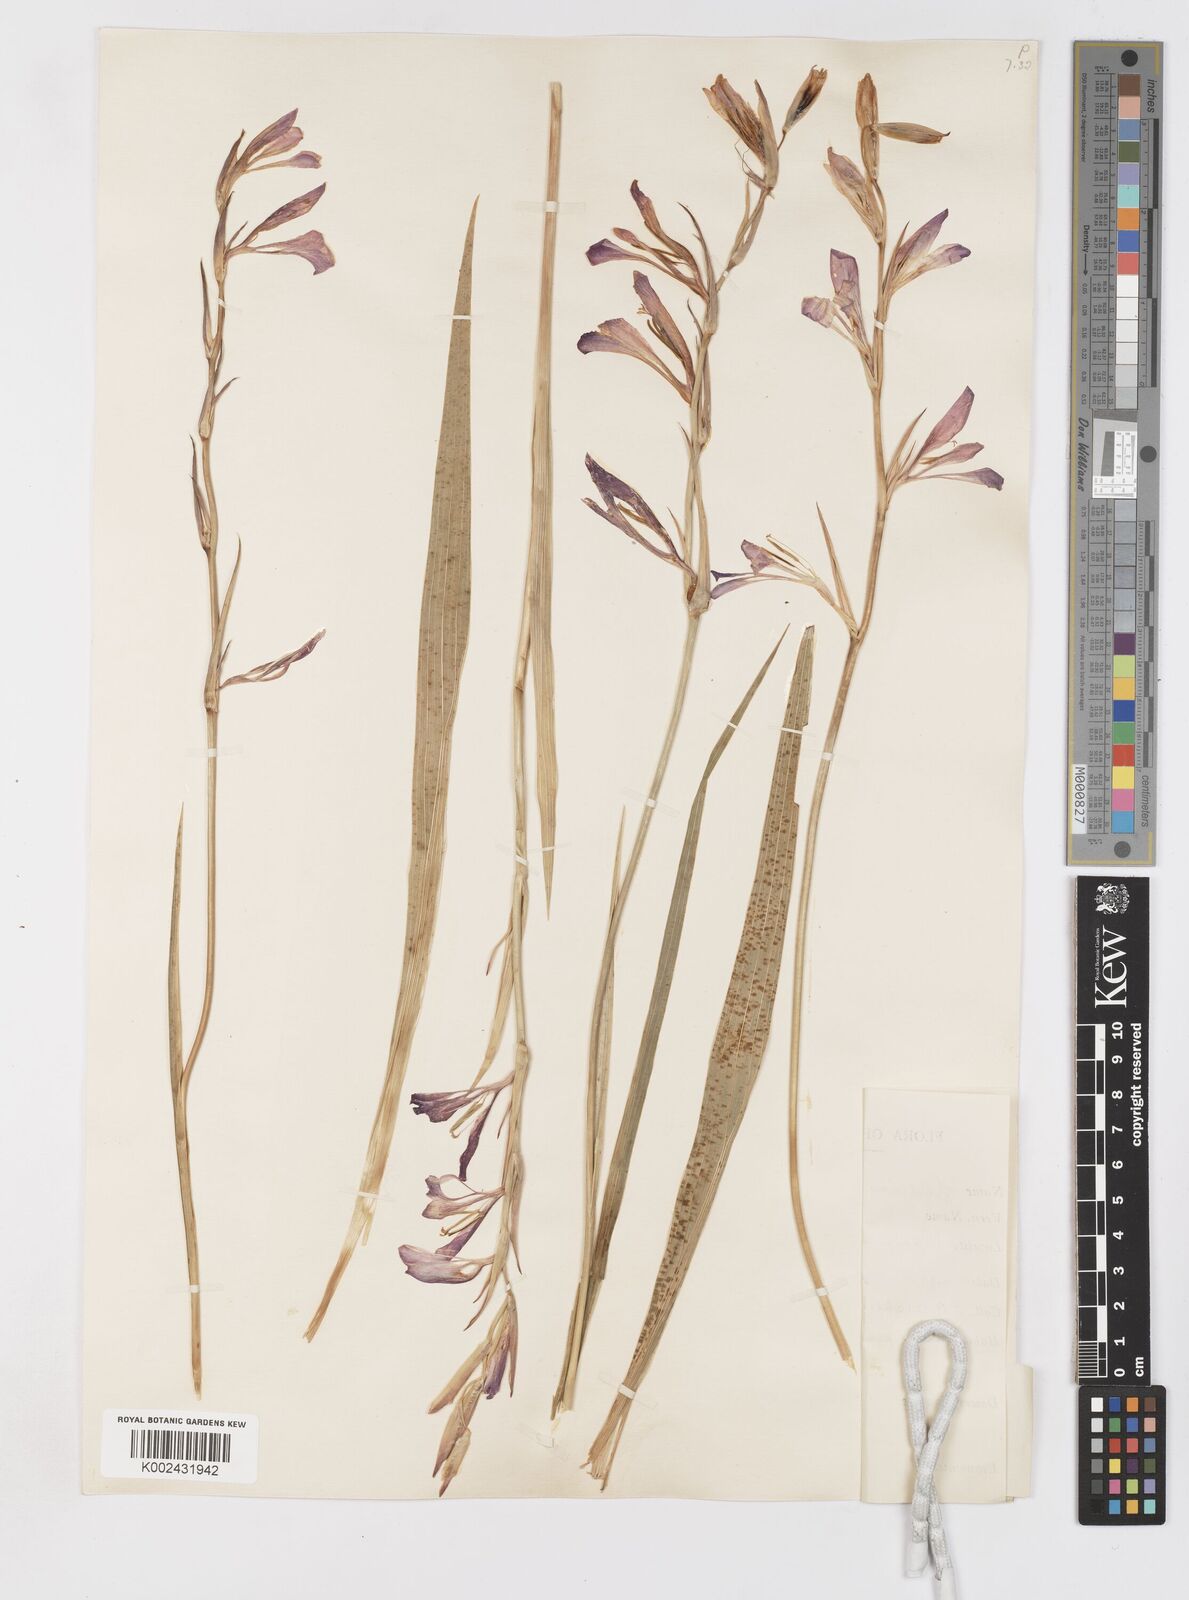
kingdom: Plantae
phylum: Tracheophyta
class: Liliopsida
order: Asparagales
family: Iridaceae
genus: Gladiolus
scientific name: Gladiolus italicus
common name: Field gladiolus
